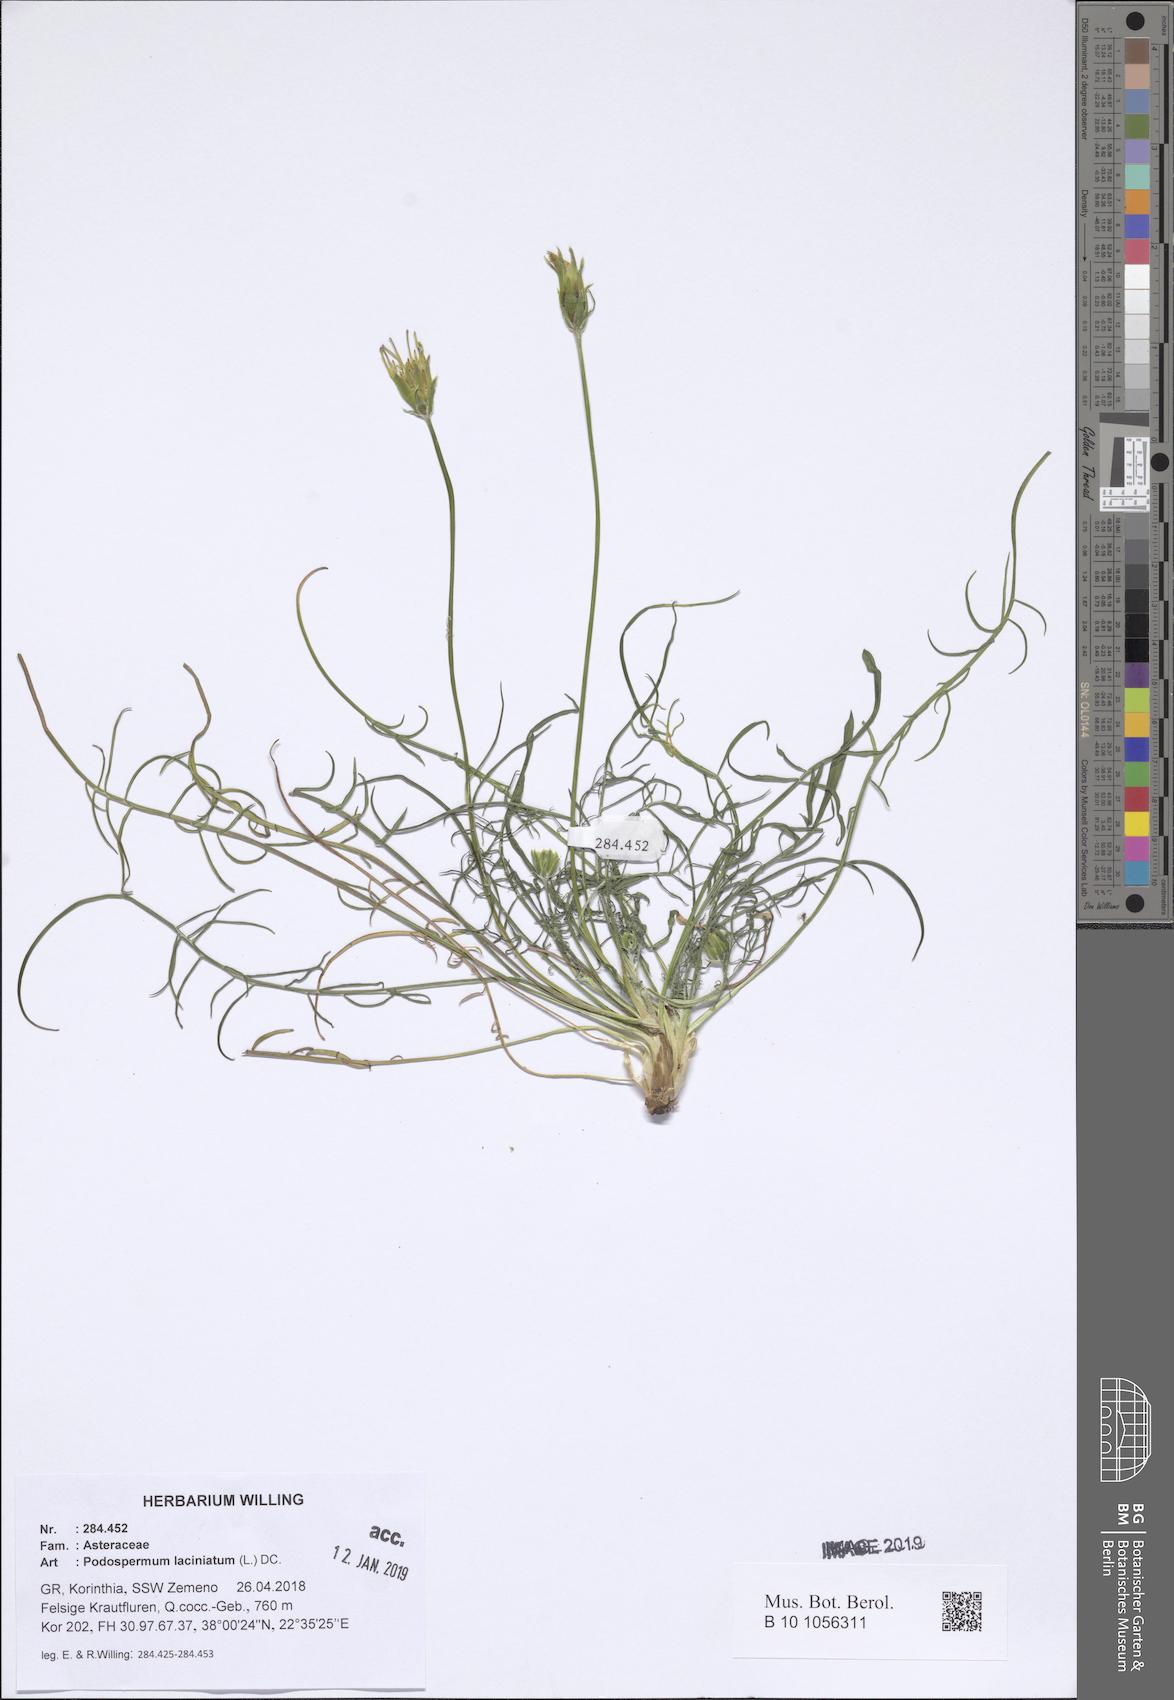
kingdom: Plantae
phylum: Tracheophyta
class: Magnoliopsida
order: Asterales
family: Asteraceae
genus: Scorzonera
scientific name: Scorzonera laciniata
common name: Cutleaf vipergrass
